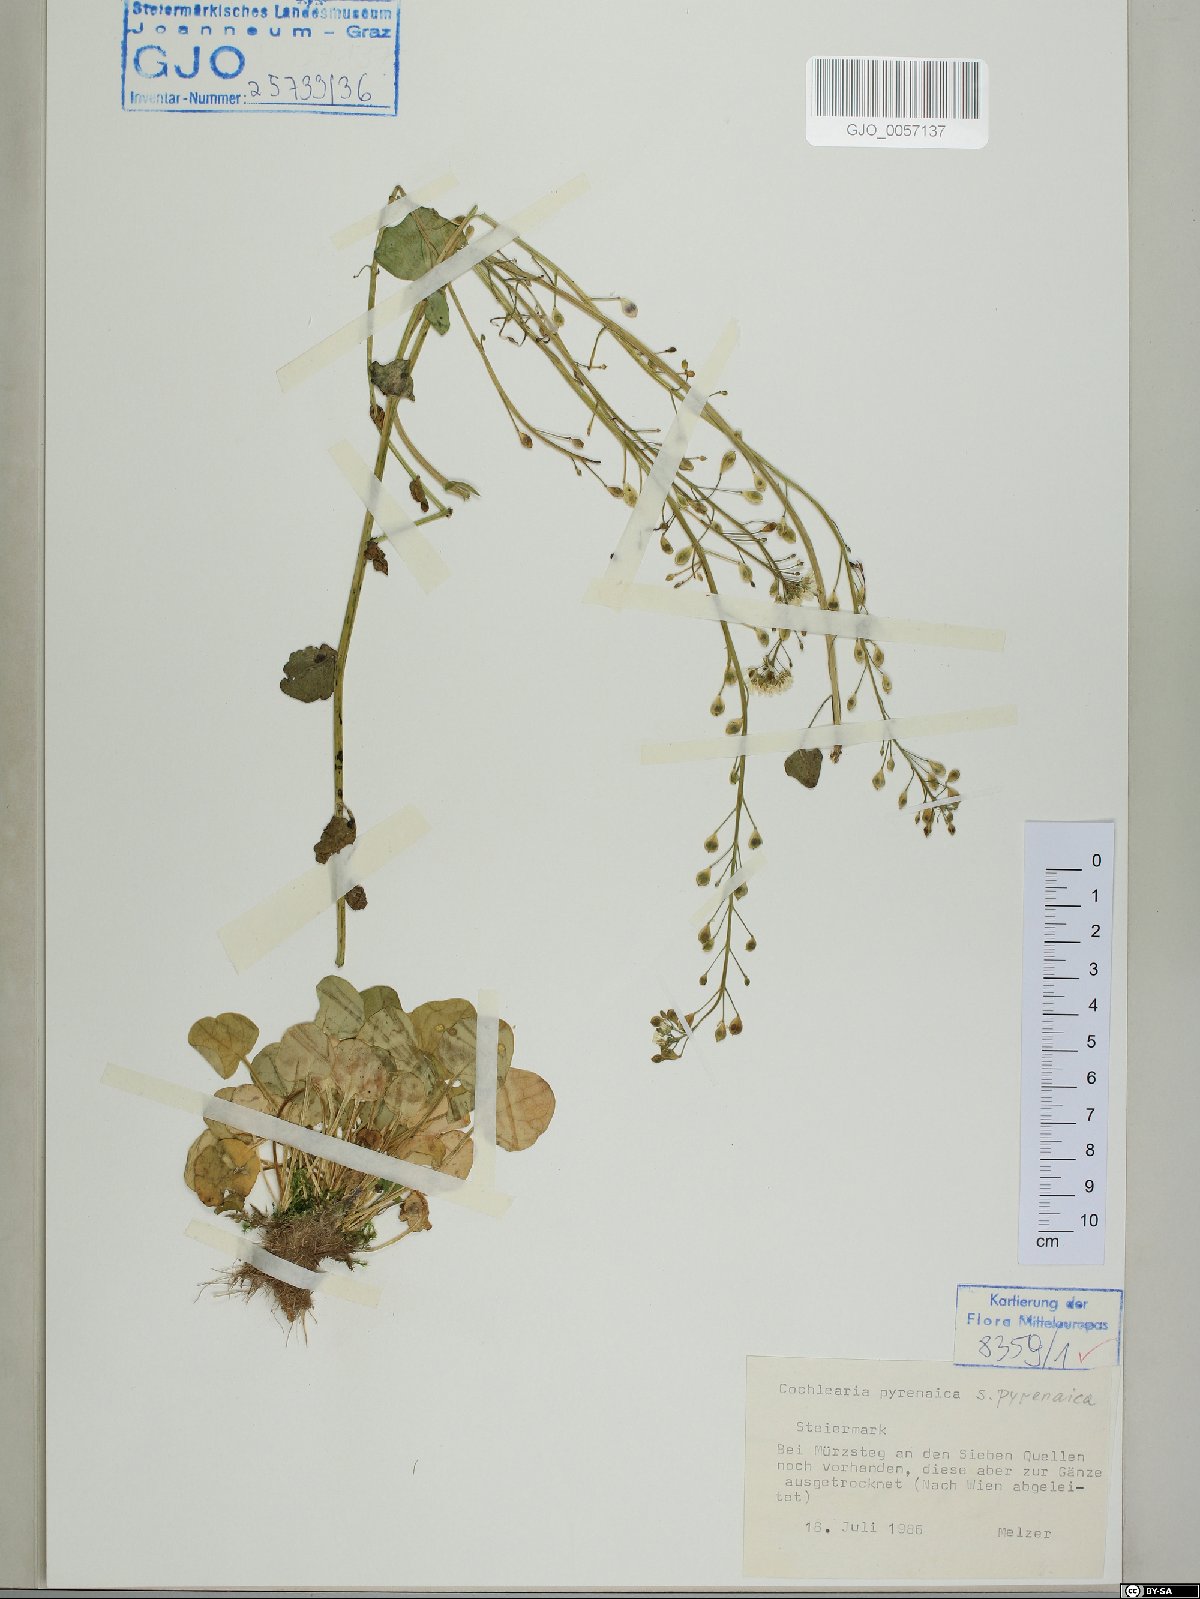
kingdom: Plantae
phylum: Tracheophyta
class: Magnoliopsida
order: Brassicales
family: Brassicaceae
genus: Cochlearia
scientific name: Cochlearia pyrenaica
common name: Upland scurvy-grass
